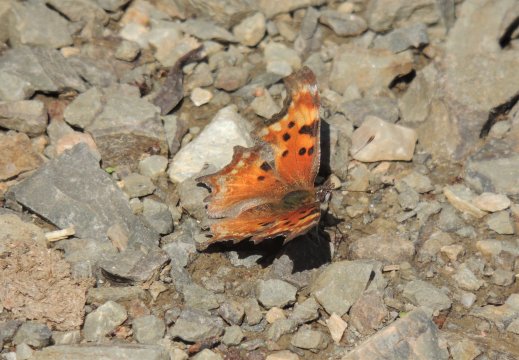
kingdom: Animalia
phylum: Arthropoda
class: Insecta
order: Lepidoptera
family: Nymphalidae
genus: Polygonia
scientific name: Polygonia gracilis
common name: Hoary Comma
